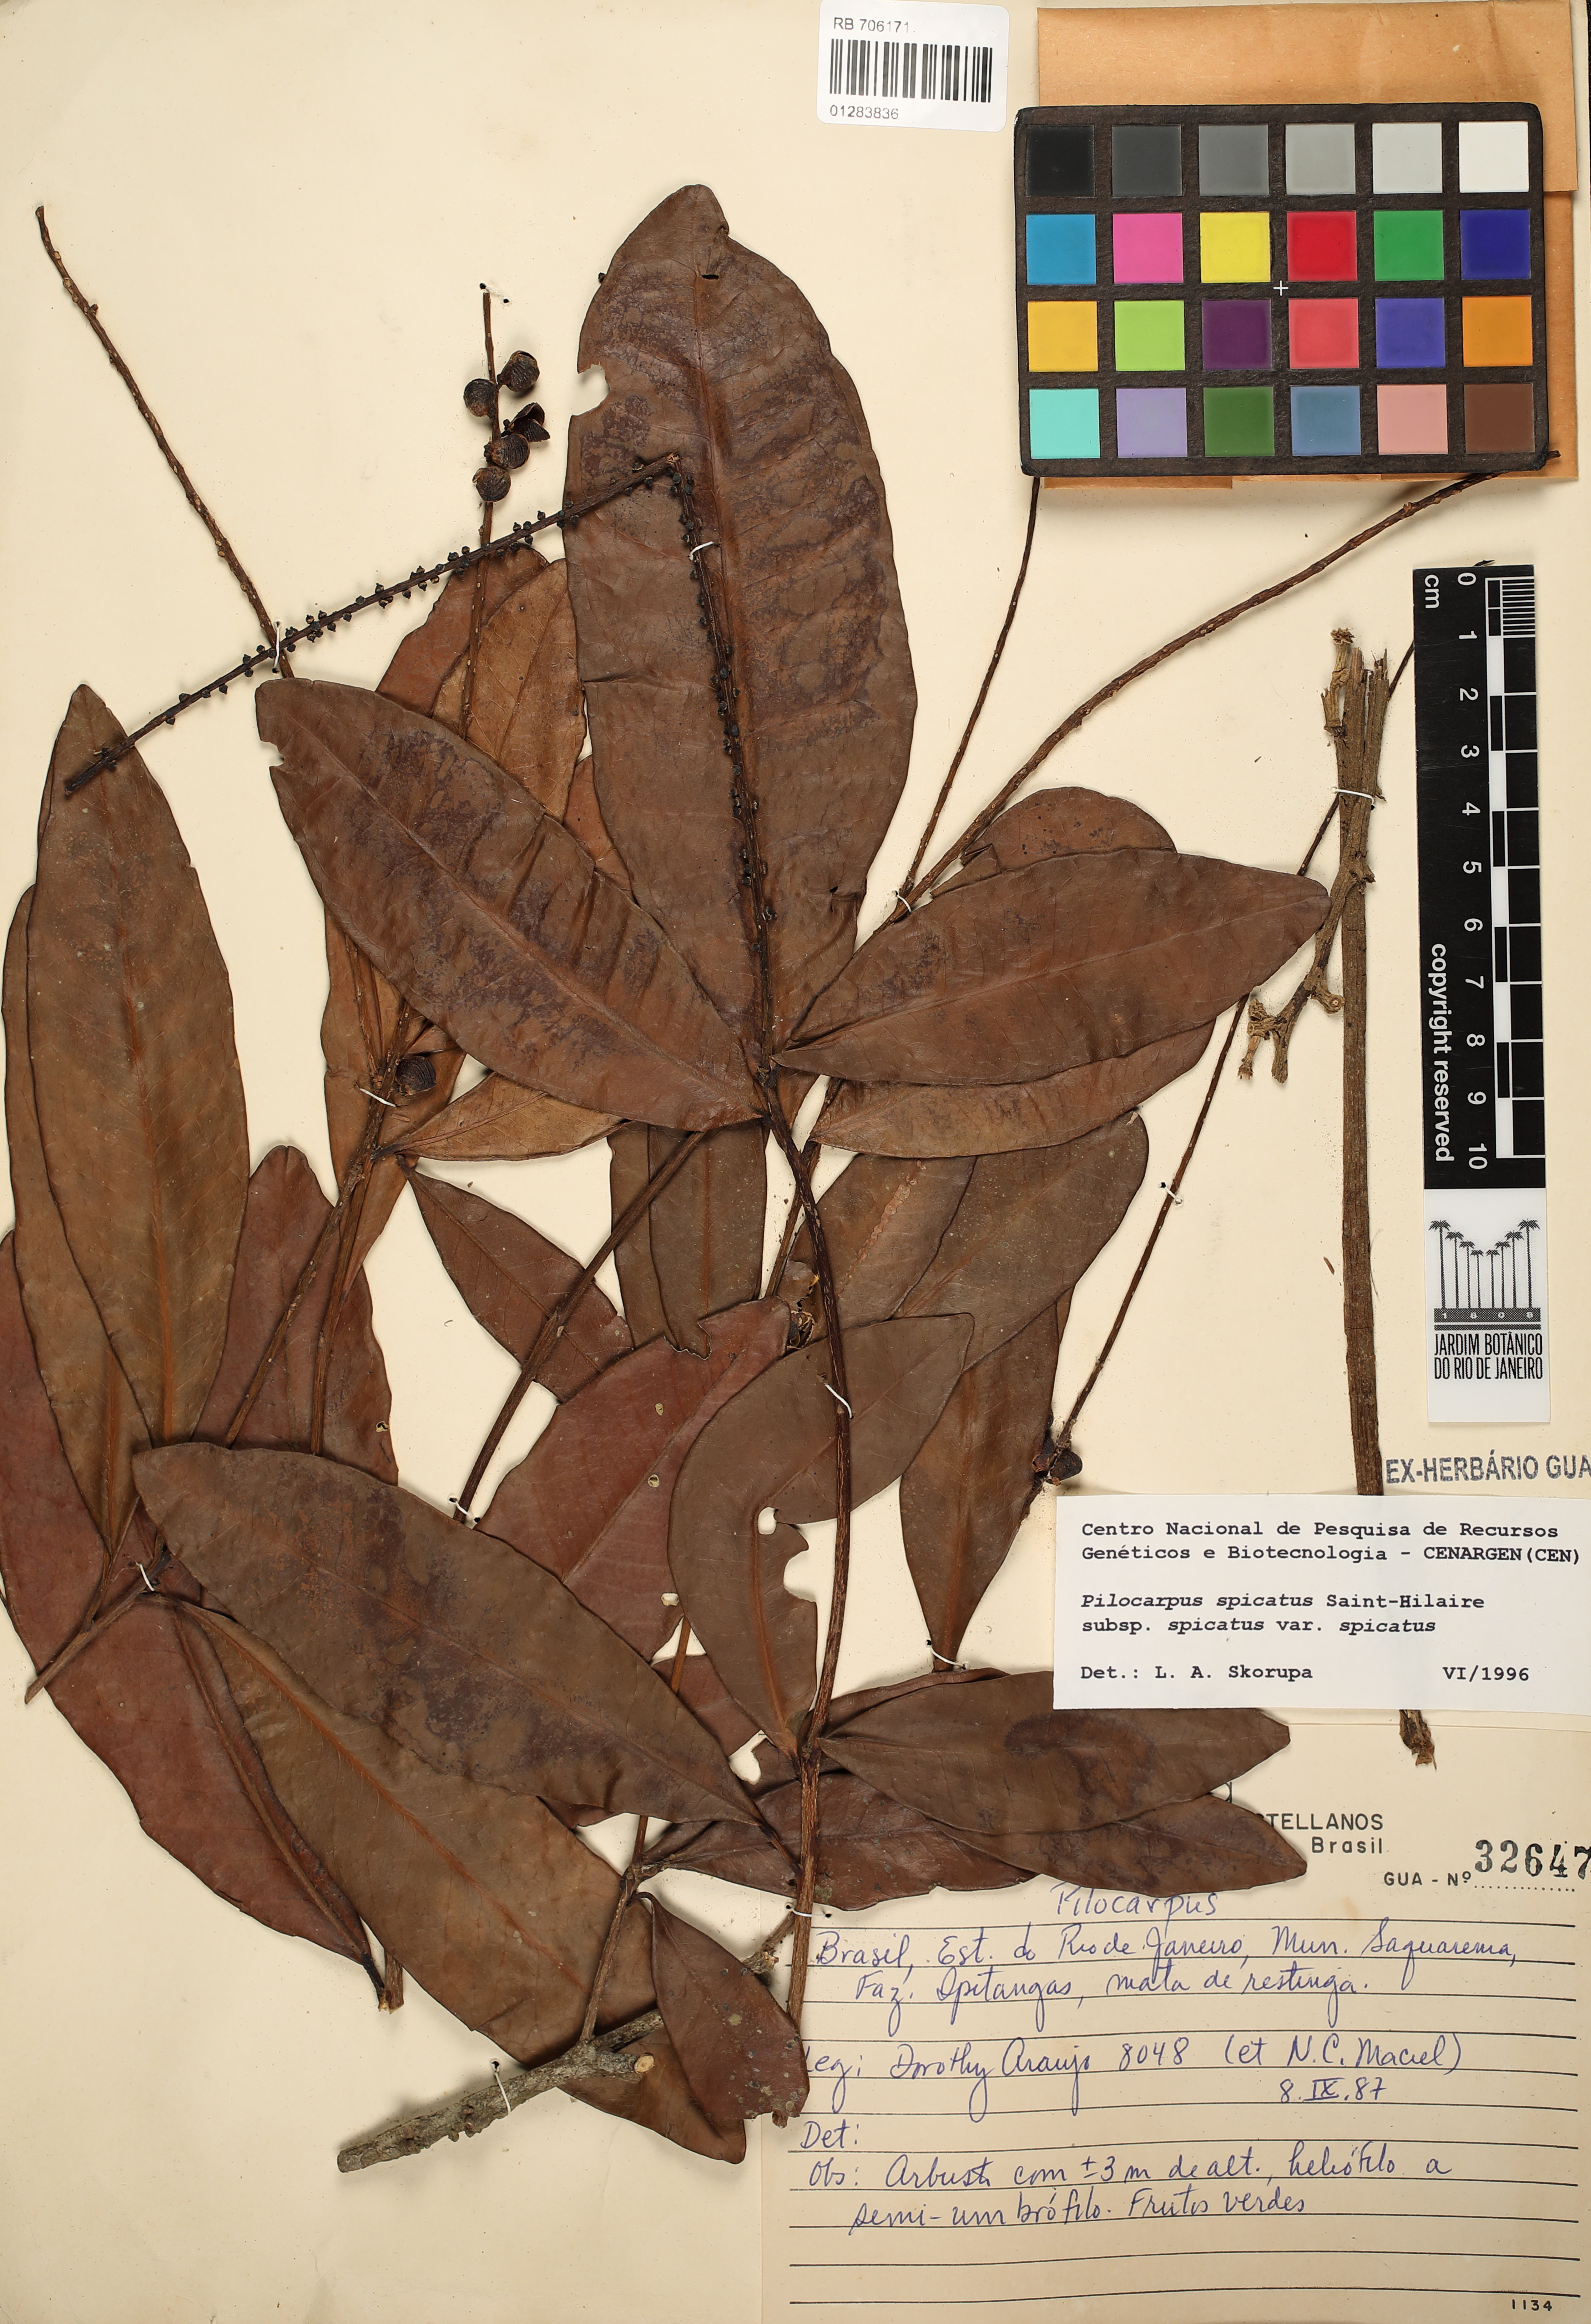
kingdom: Plantae
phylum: Tracheophyta
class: Magnoliopsida
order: Sapindales
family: Rutaceae
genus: Pilocarpus
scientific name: Pilocarpus spicatus
